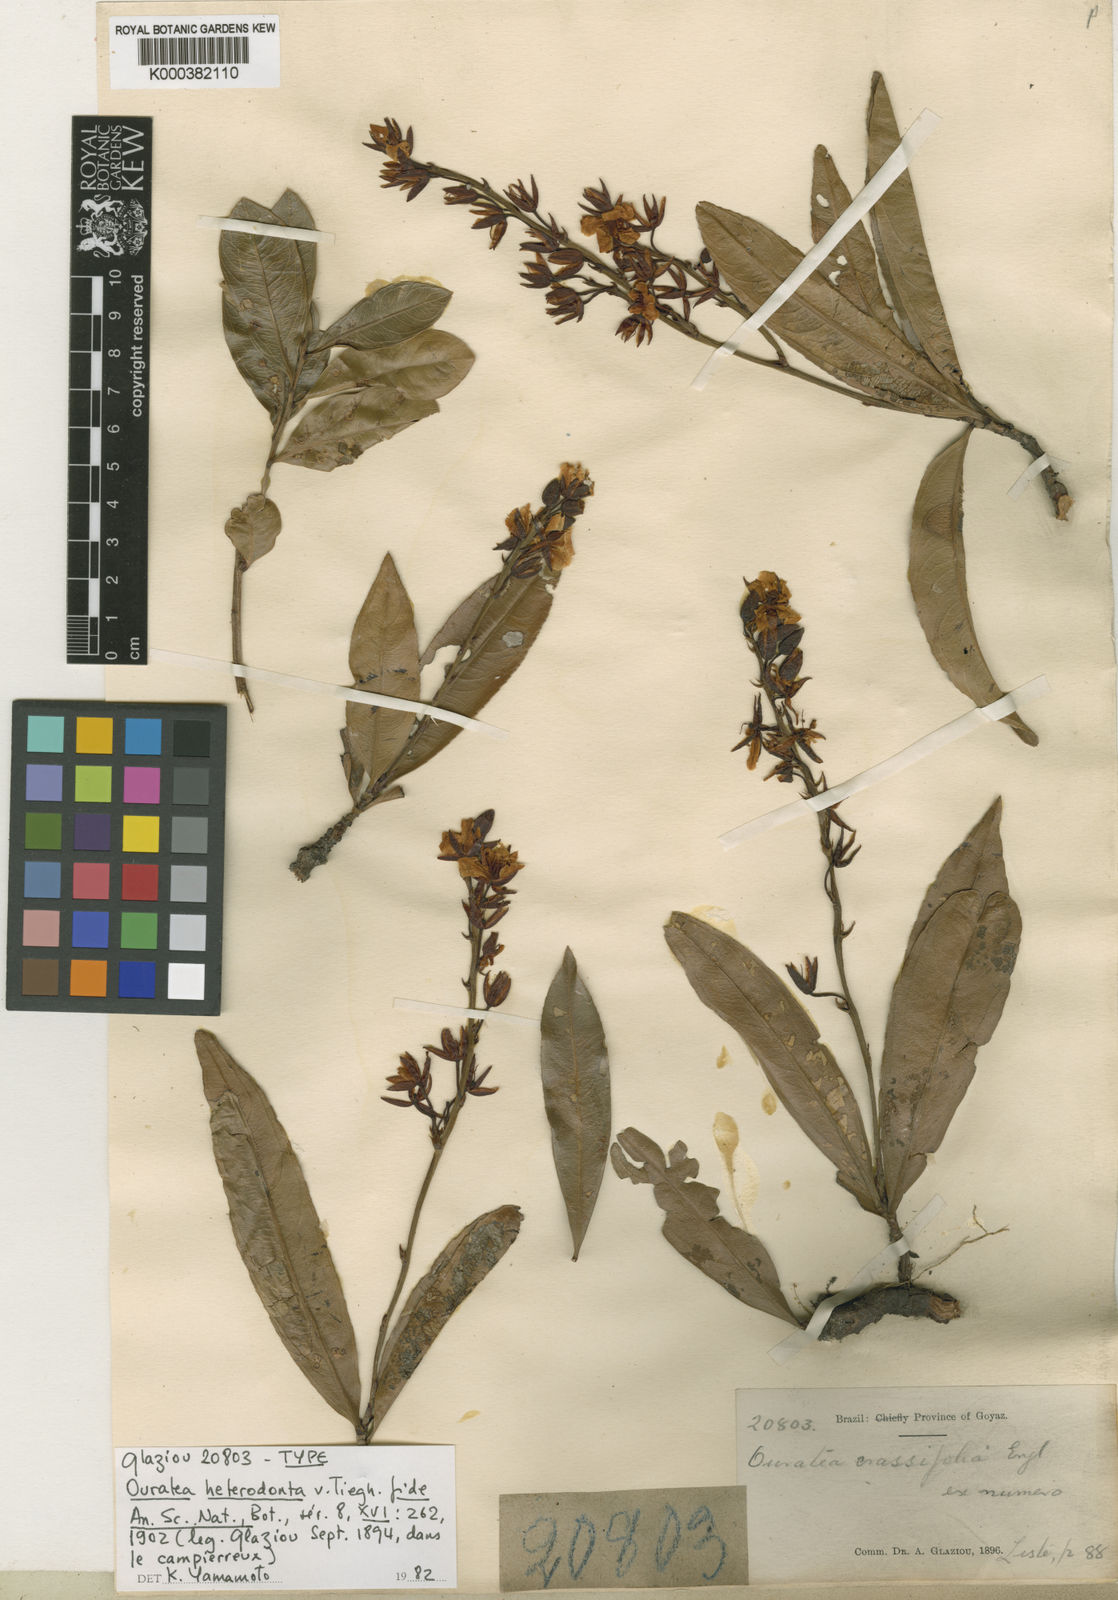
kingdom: Plantae
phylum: Tracheophyta
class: Magnoliopsida
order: Malpighiales
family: Ochnaceae
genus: Ouratea
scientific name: Ouratea crassifolia
